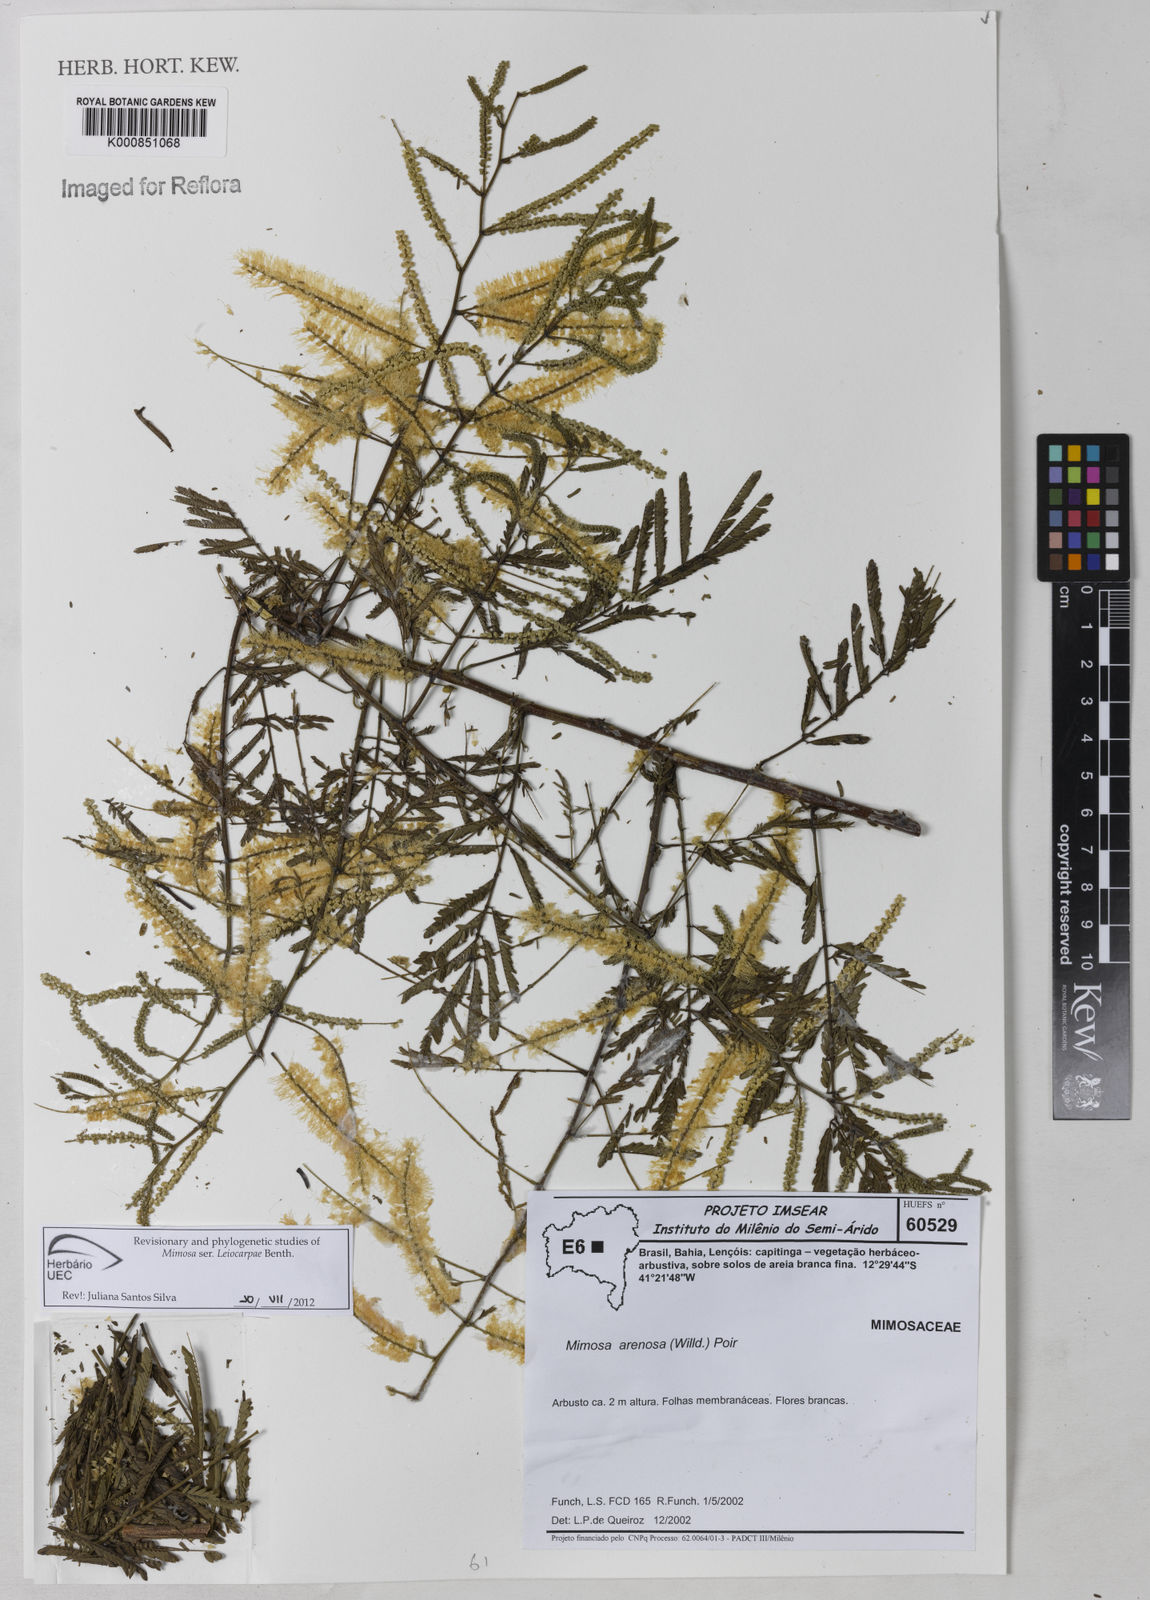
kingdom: Plantae
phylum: Tracheophyta
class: Magnoliopsida
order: Fabales
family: Fabaceae
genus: Mimosa
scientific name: Mimosa arenosa
